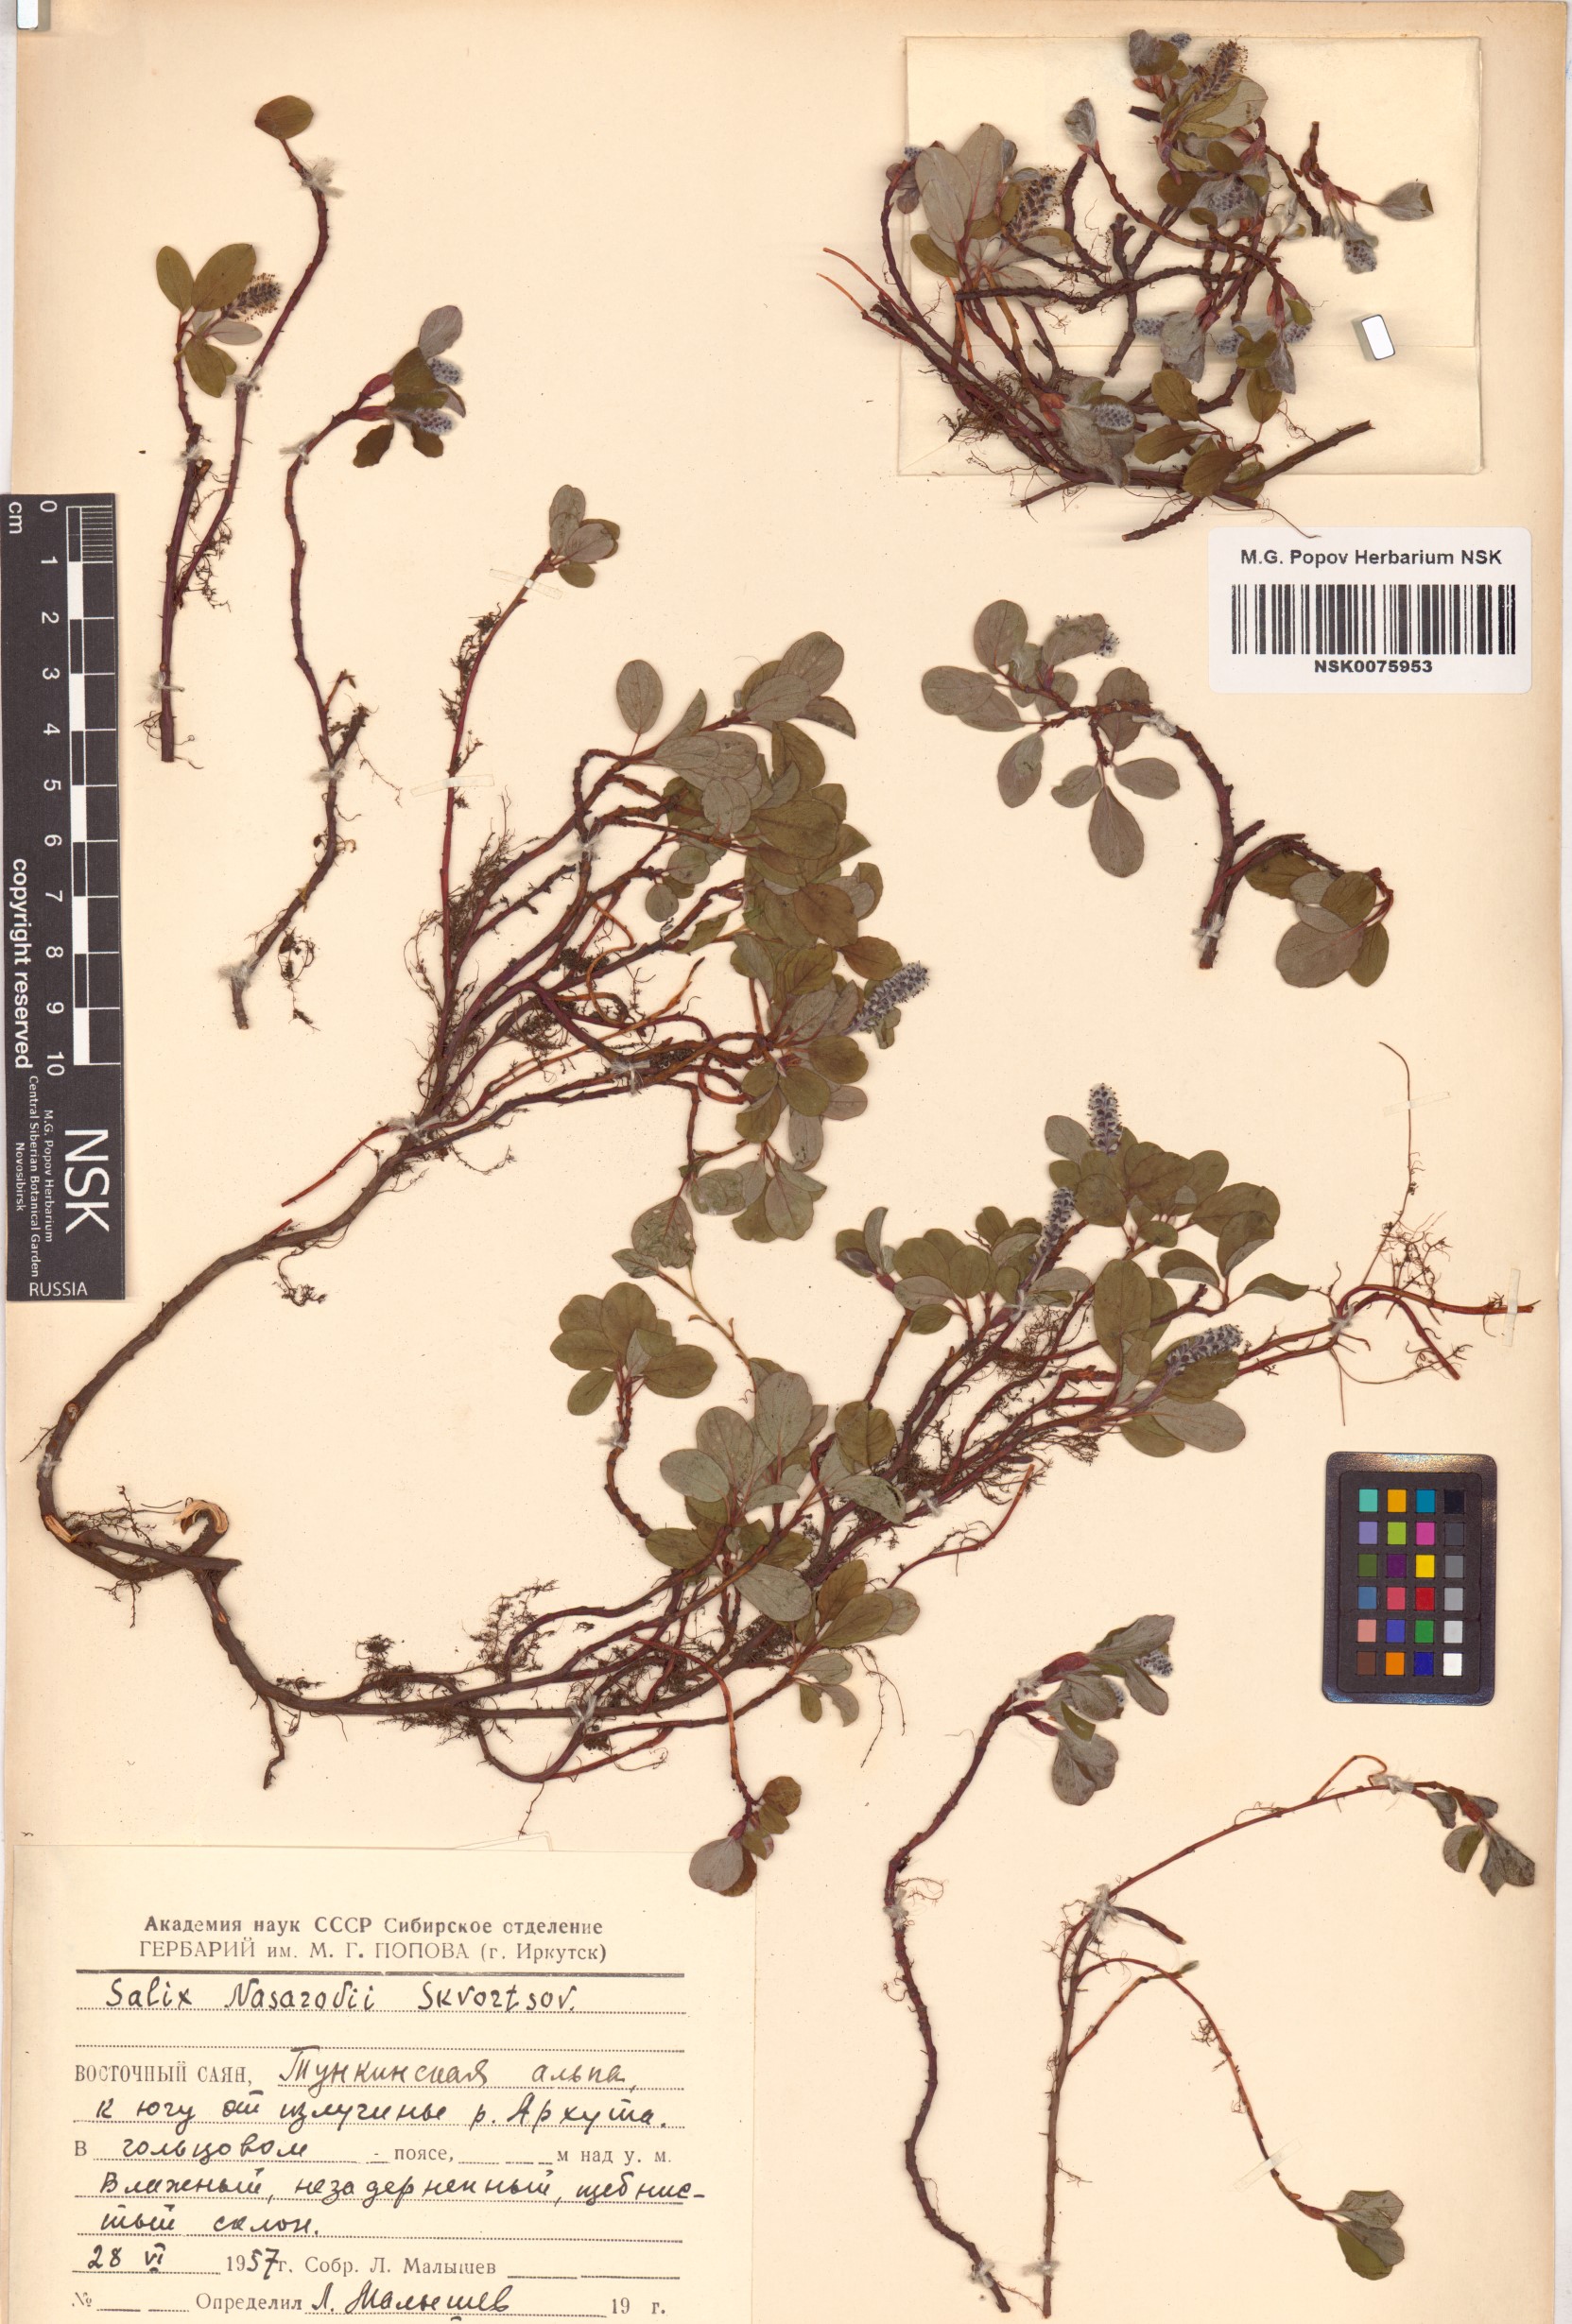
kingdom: Plantae
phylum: Tracheophyta
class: Magnoliopsida
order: Malpighiales
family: Salicaceae
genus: Salix
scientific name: Salix nasarovii
